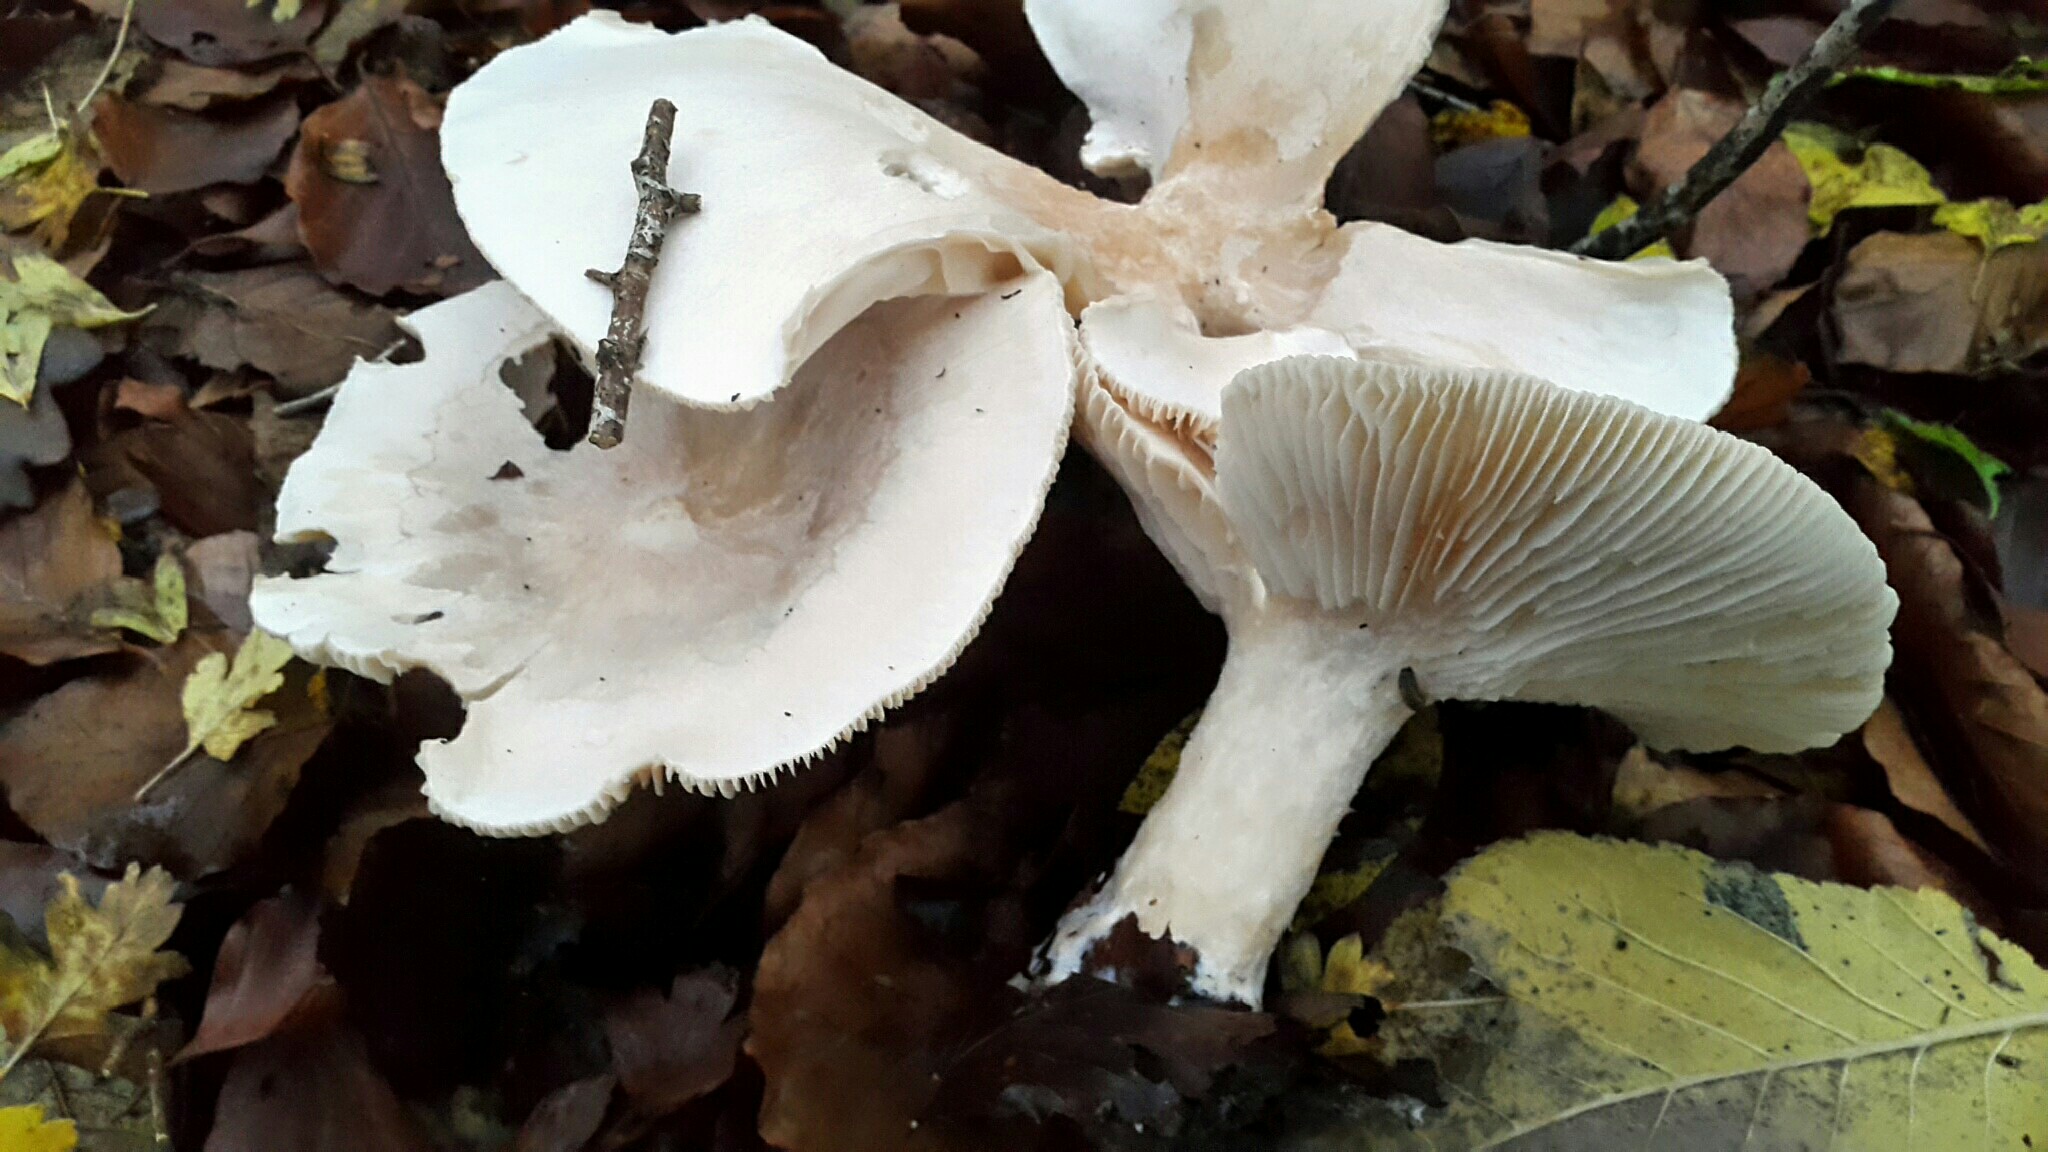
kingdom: Fungi
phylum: Basidiomycota
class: Agaricomycetes
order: Agaricales
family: Tricholomataceae
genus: Infundibulicybe
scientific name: Infundibulicybe geotropa
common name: stor tragthat
